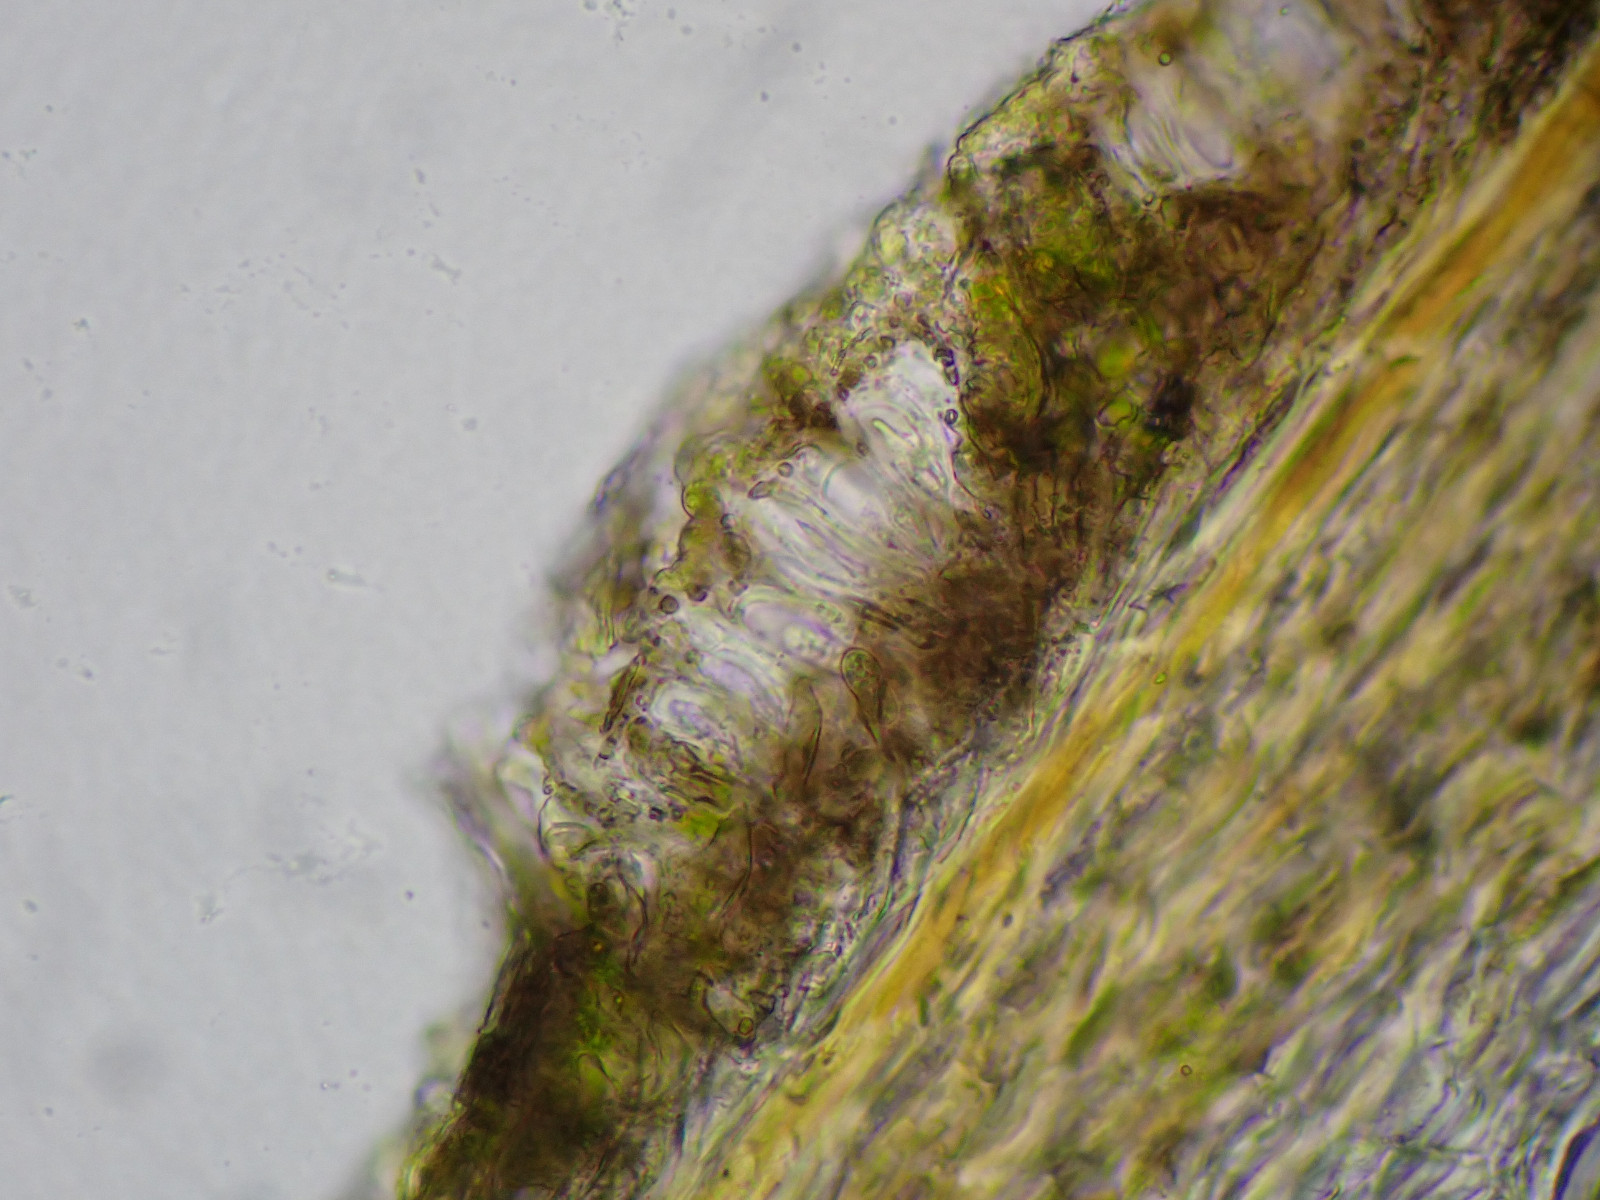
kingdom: Fungi
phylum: Ascomycota
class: Arthoniomycetes
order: Arthoniales
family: Arthoniaceae
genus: Arthonia
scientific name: Arthonia didyma
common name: oliven-pletlav
